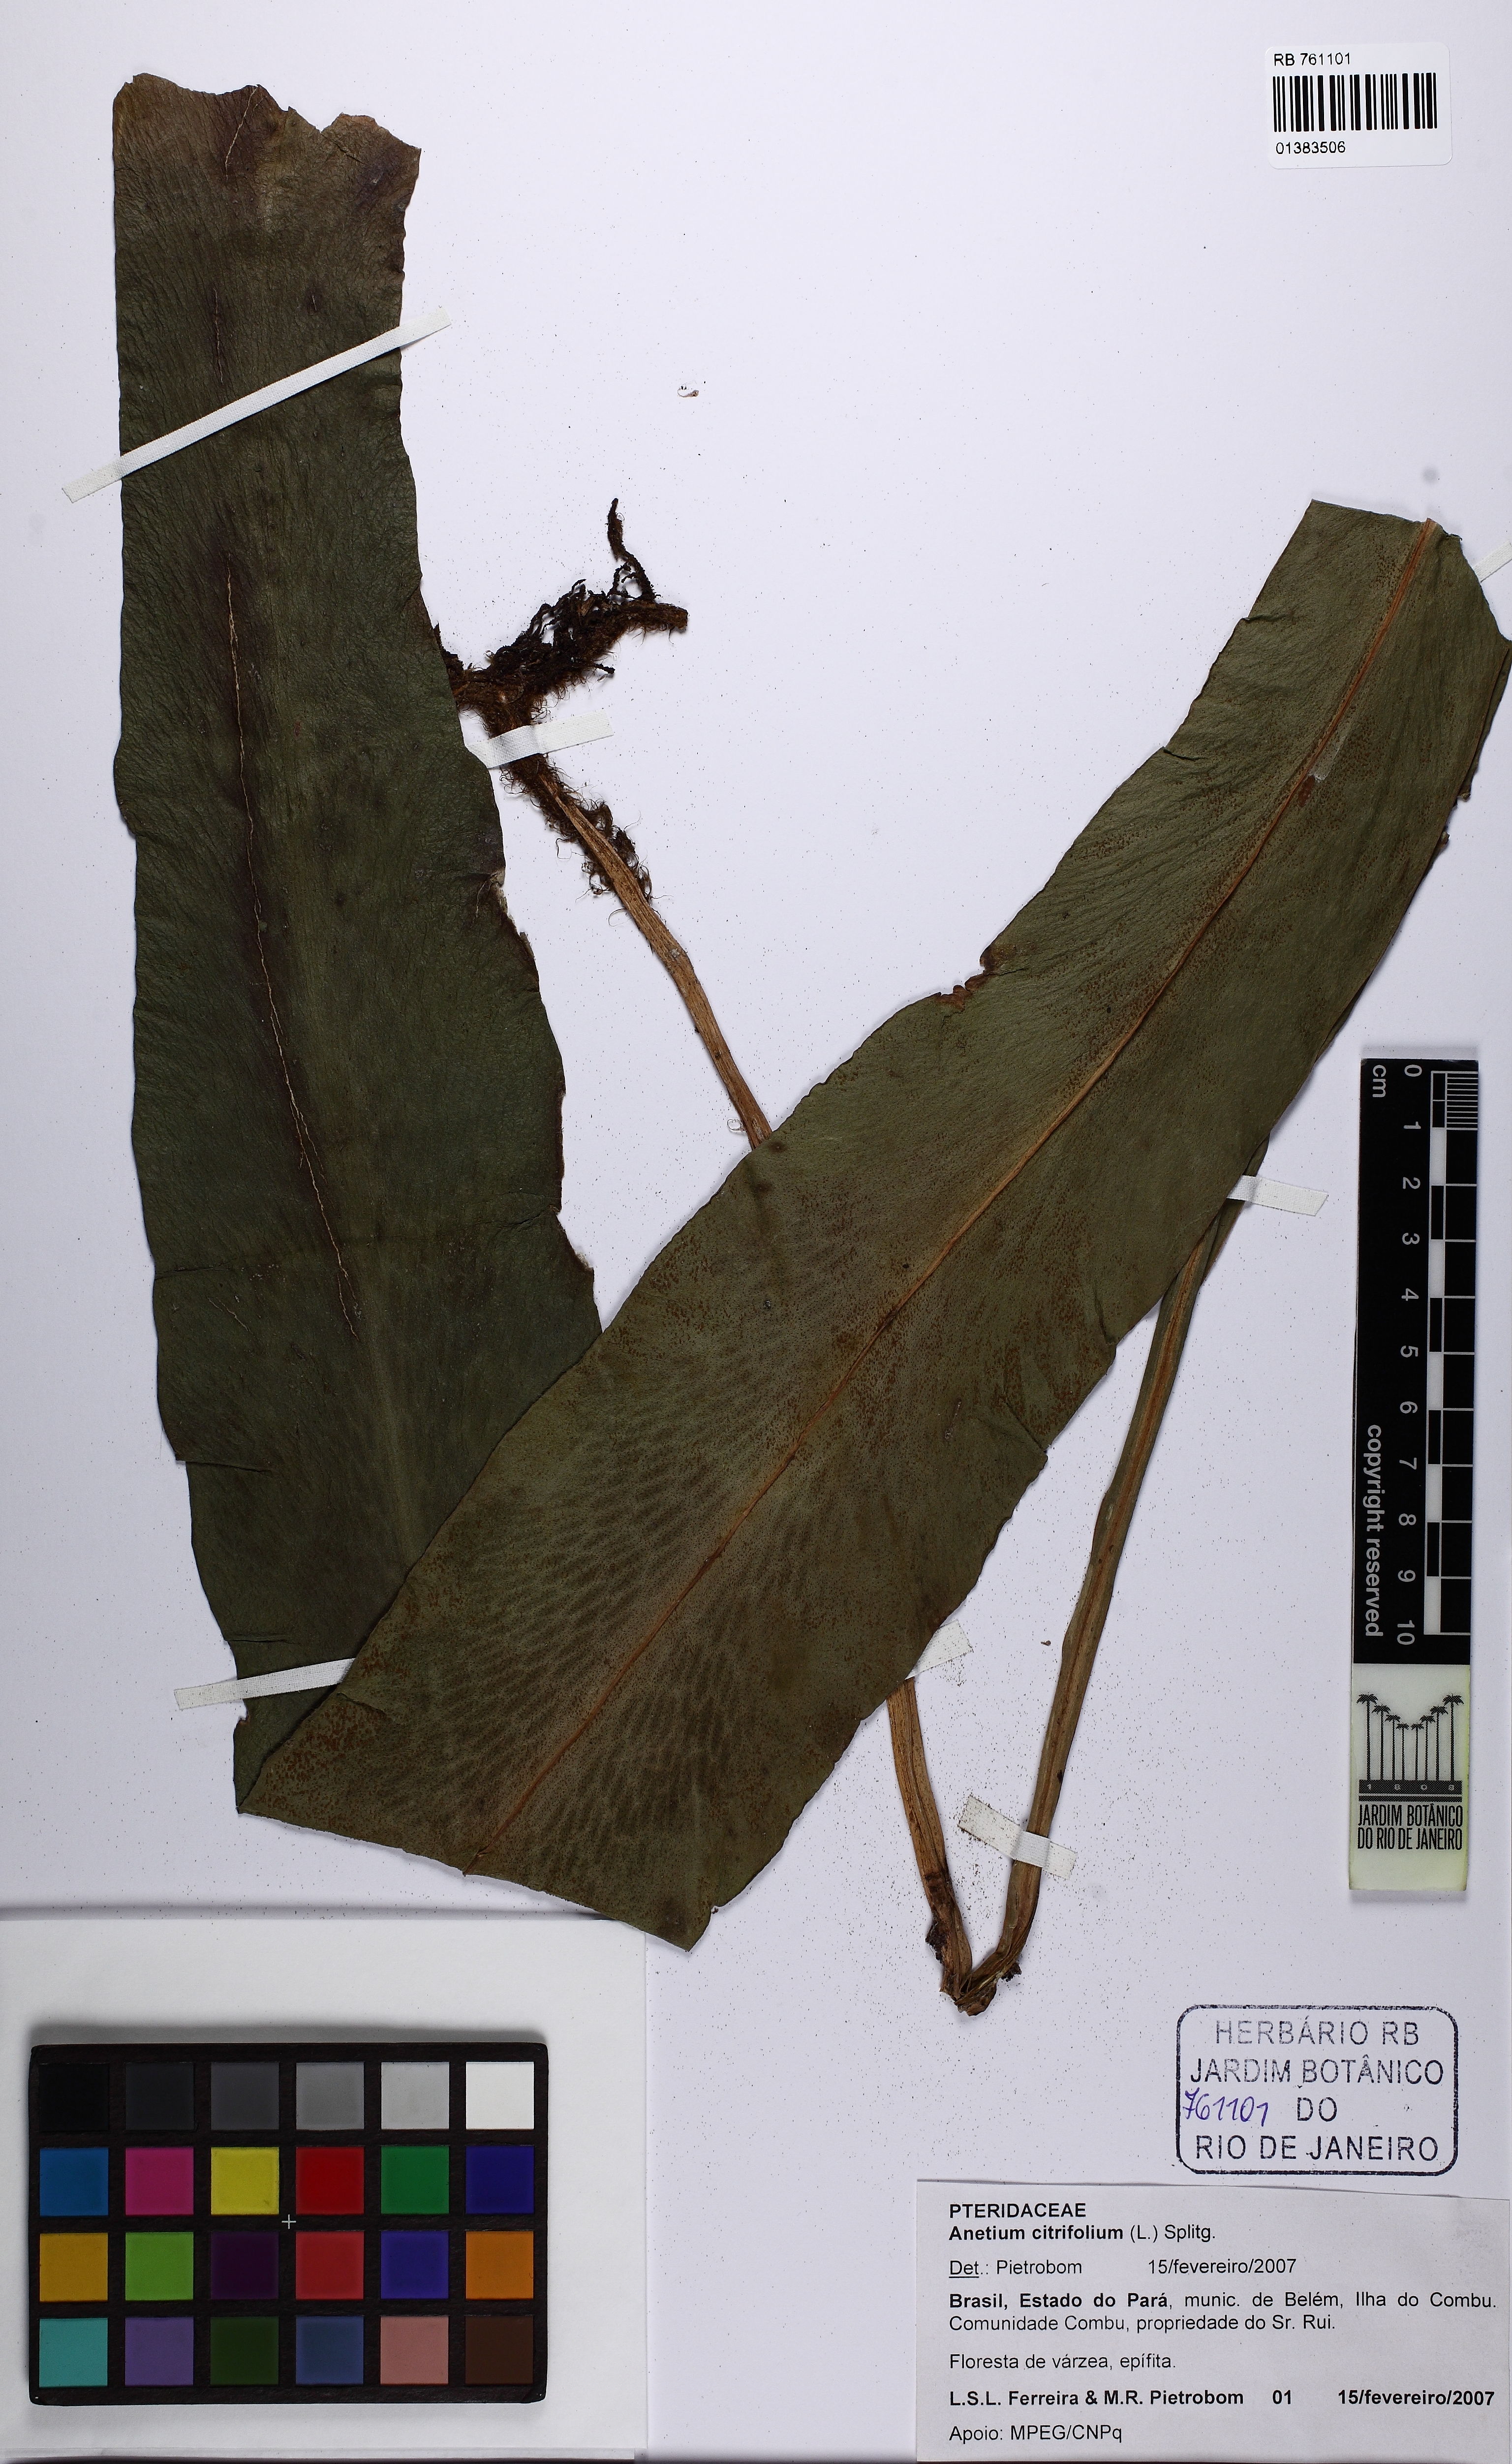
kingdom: Plantae
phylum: Tracheophyta
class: Polypodiopsida
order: Polypodiales
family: Pteridaceae
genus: Polytaenium
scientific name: Polytaenium citrifolium
